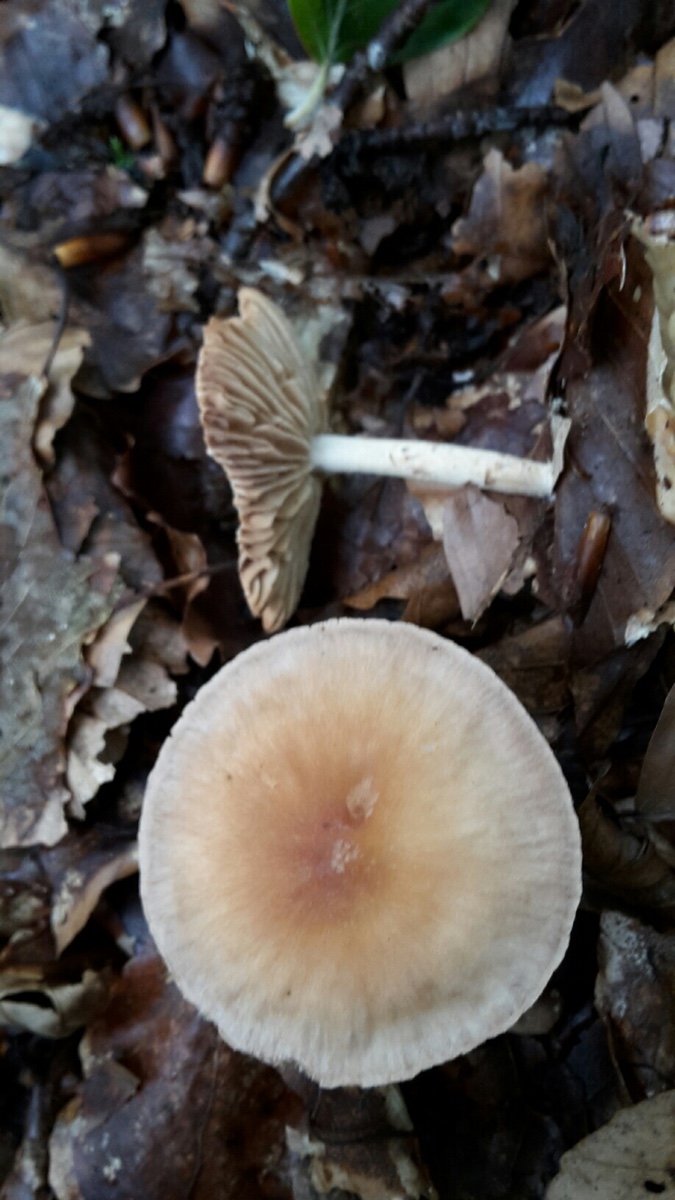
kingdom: Fungi
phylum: Basidiomycota
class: Agaricomycetes
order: Agaricales
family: Omphalotaceae
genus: Collybiopsis
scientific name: Collybiopsis peronata
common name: bestøvlet fladhat
